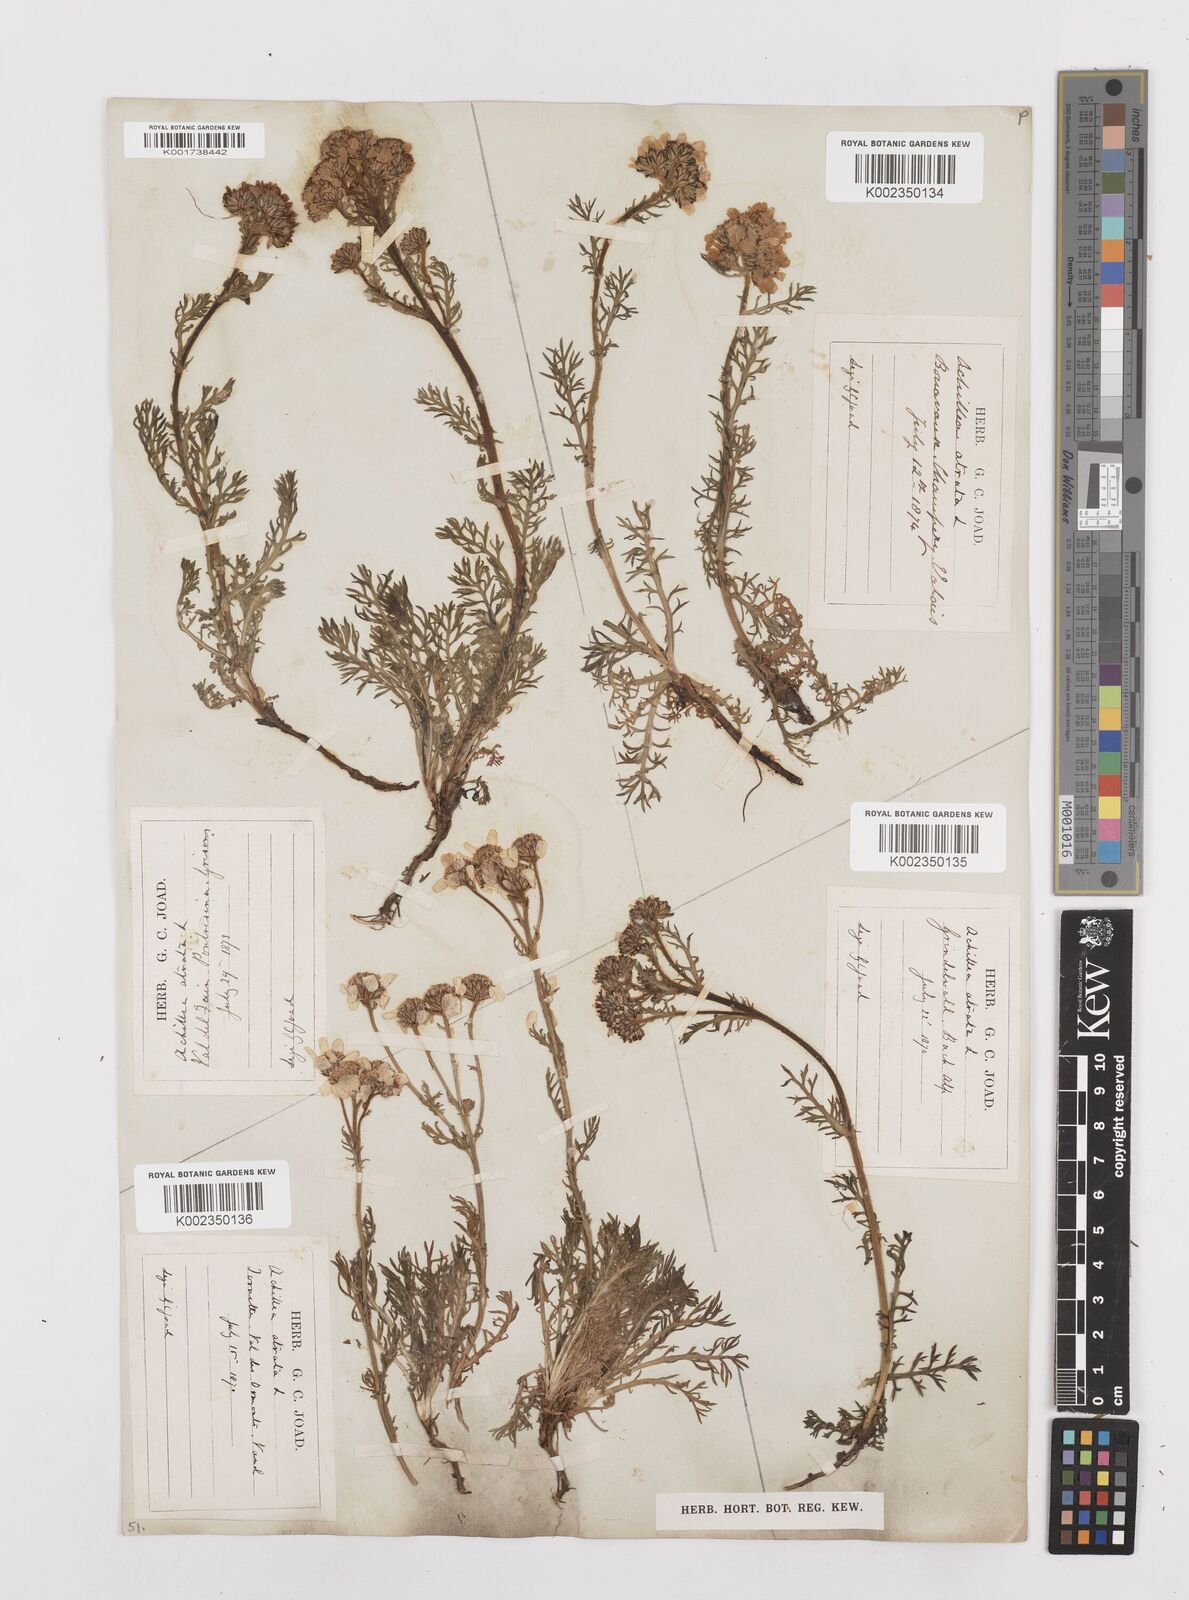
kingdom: Plantae
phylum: Tracheophyta
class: Magnoliopsida
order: Asterales
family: Asteraceae
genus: Achillea
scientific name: Achillea atrata
